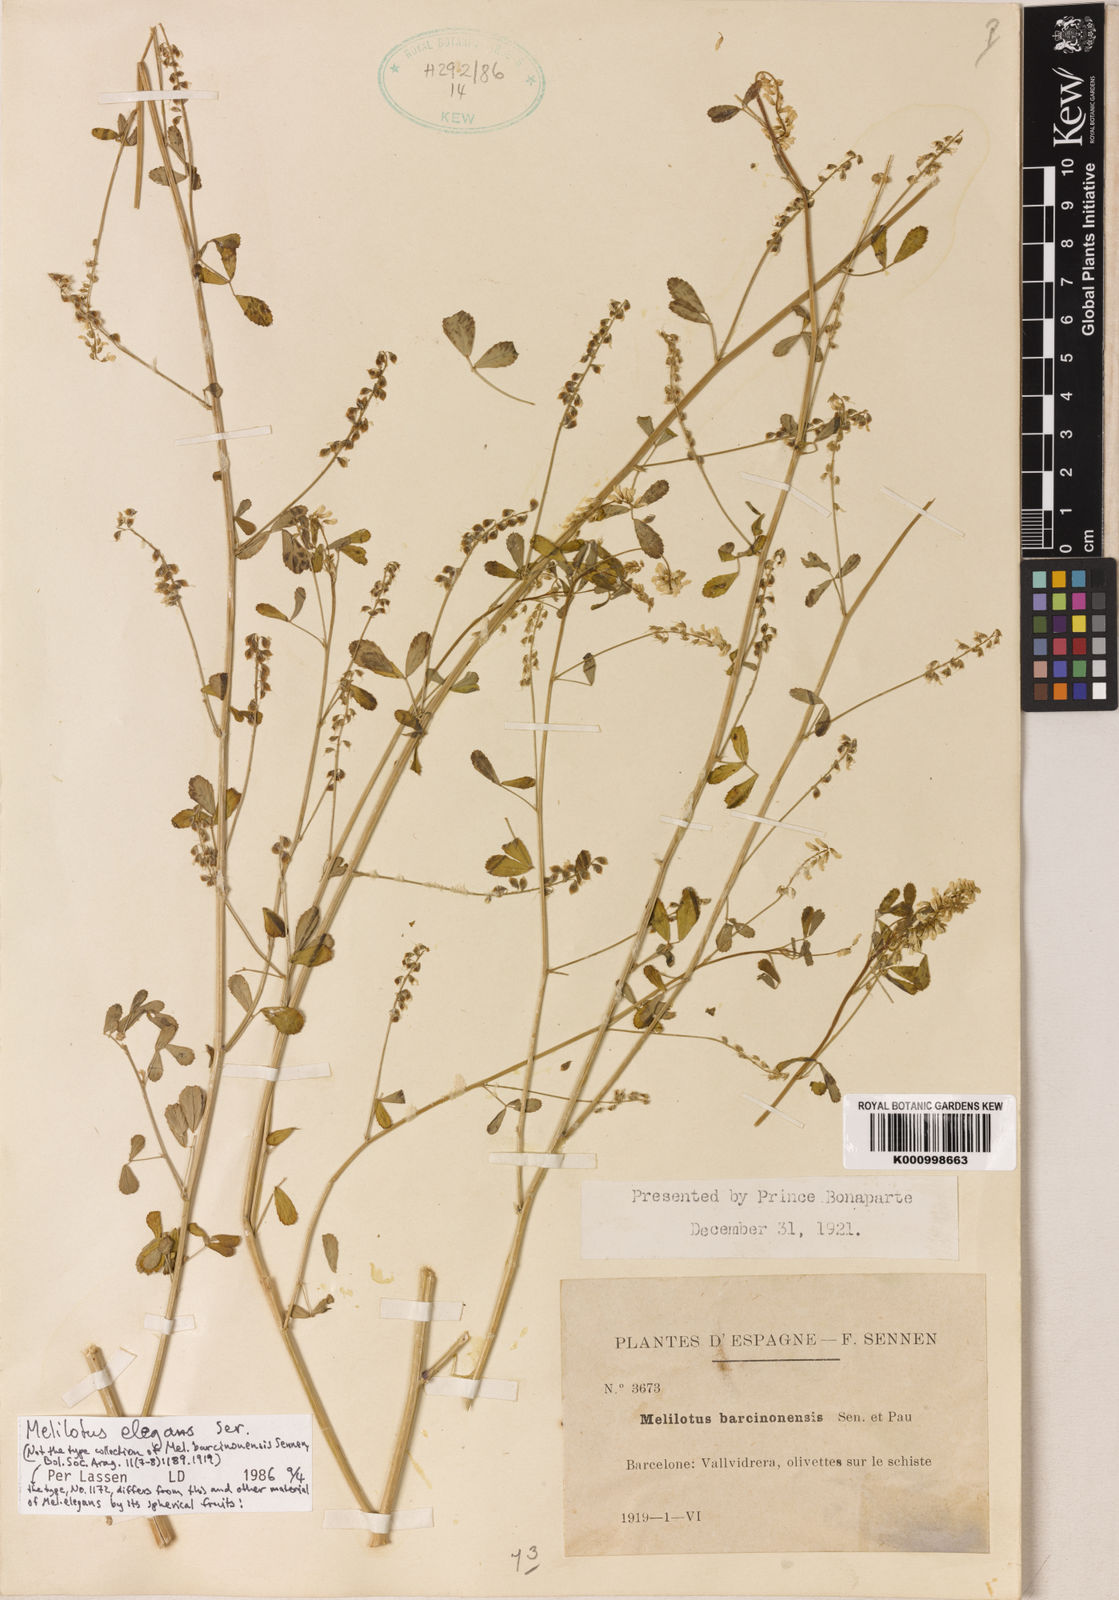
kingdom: Plantae
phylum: Tracheophyta
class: Magnoliopsida
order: Fabales
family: Fabaceae
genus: Melilotus
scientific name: Melilotus elegans
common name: Elegant sweet-clover
